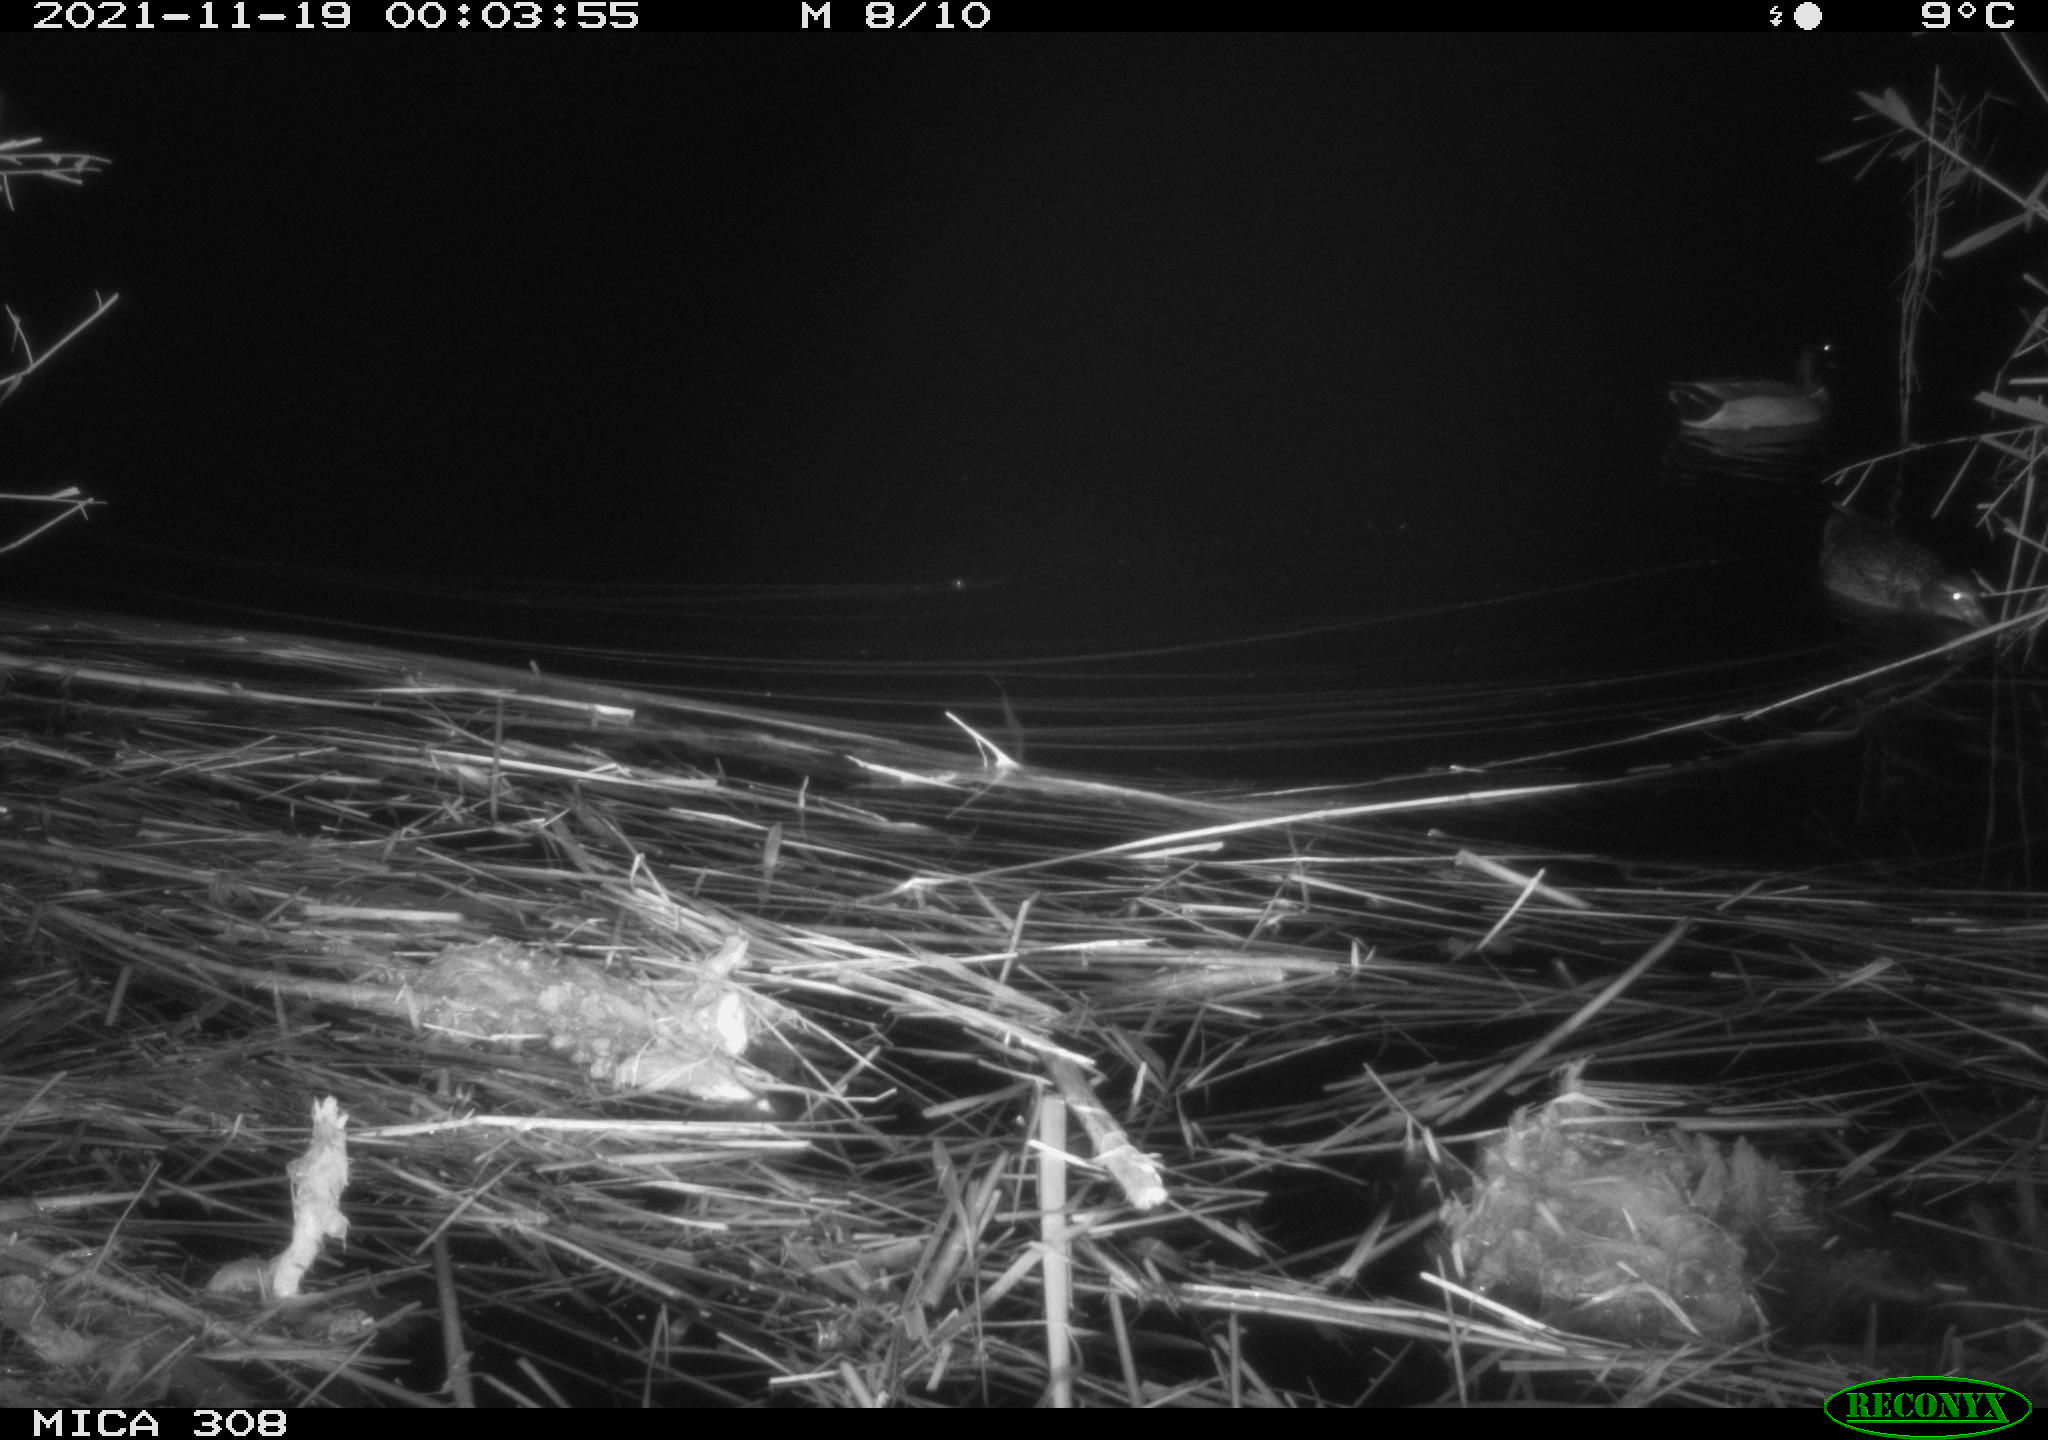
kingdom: Animalia
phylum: Chordata
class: Mammalia
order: Rodentia
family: Muridae
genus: Rattus
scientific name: Rattus norvegicus
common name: Brown rat
